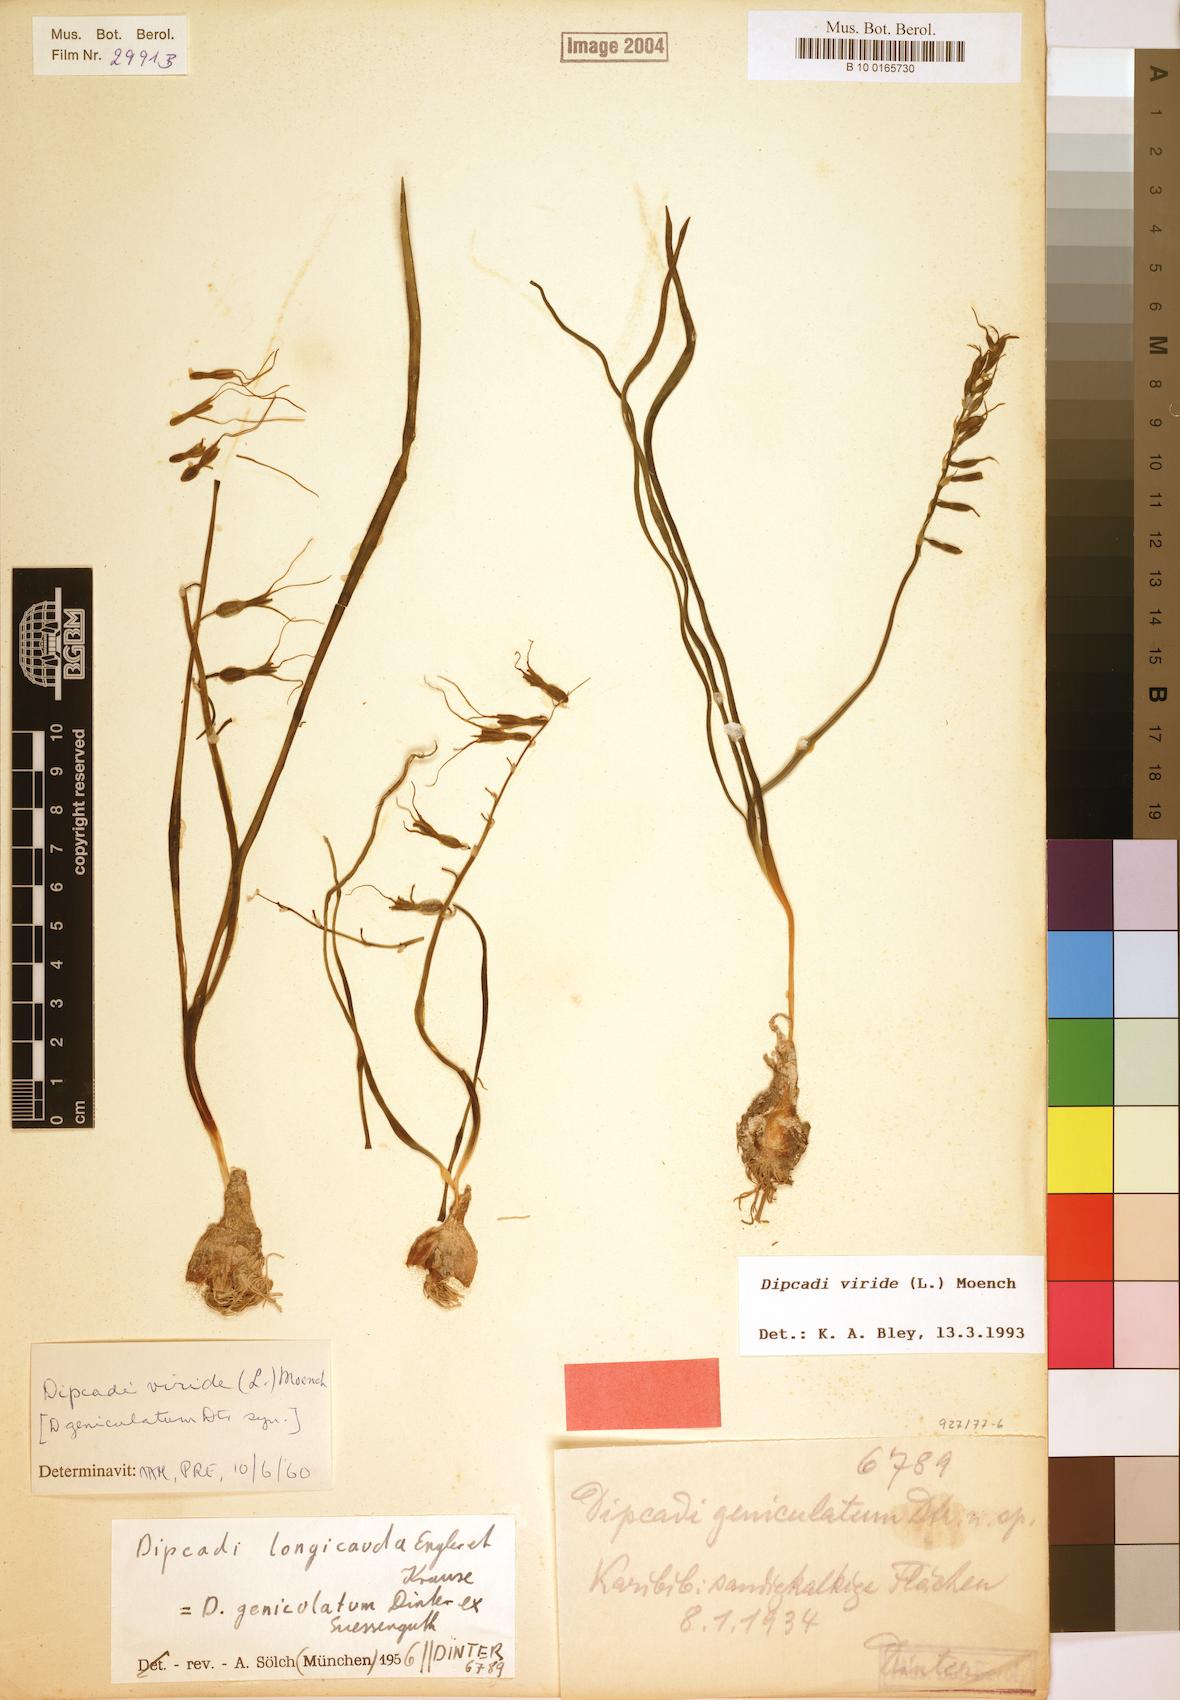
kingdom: Plantae
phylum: Tracheophyta
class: Liliopsida
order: Asparagales
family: Asparagaceae
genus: Dipcadi
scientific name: Dipcadi viride
